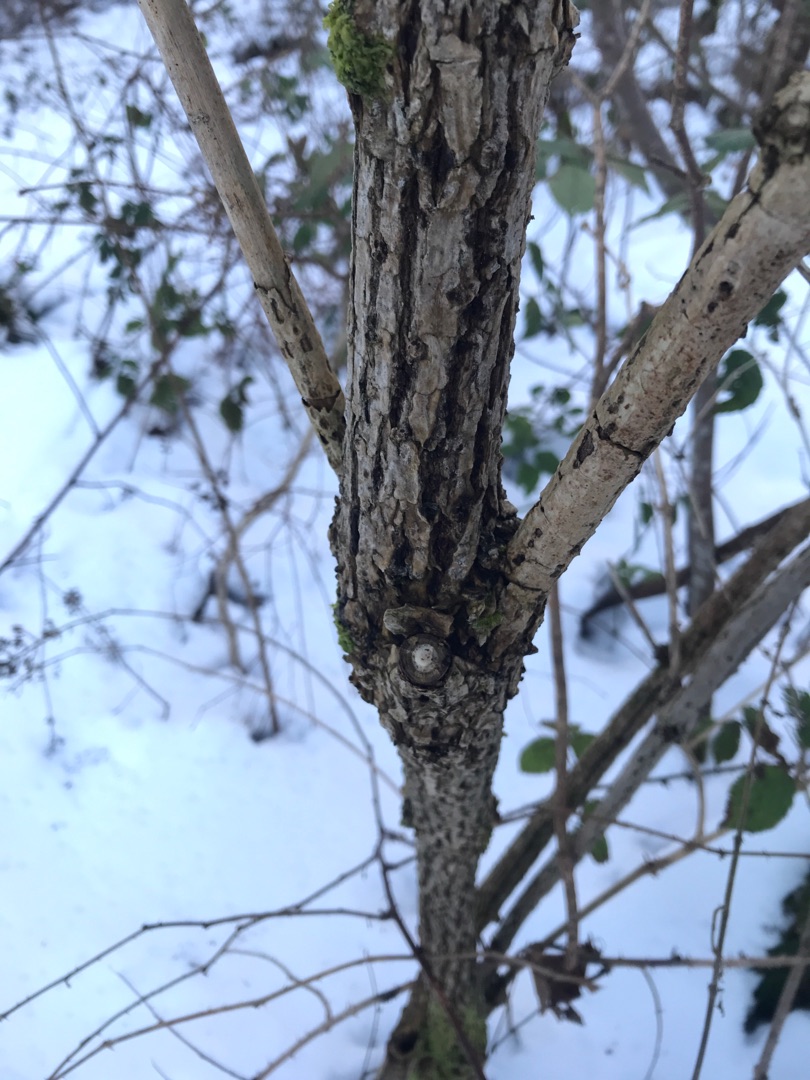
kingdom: Plantae
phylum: Tracheophyta
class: Magnoliopsida
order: Dipsacales
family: Viburnaceae
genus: Sambucus
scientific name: Sambucus nigra
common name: Almindelig hyld
